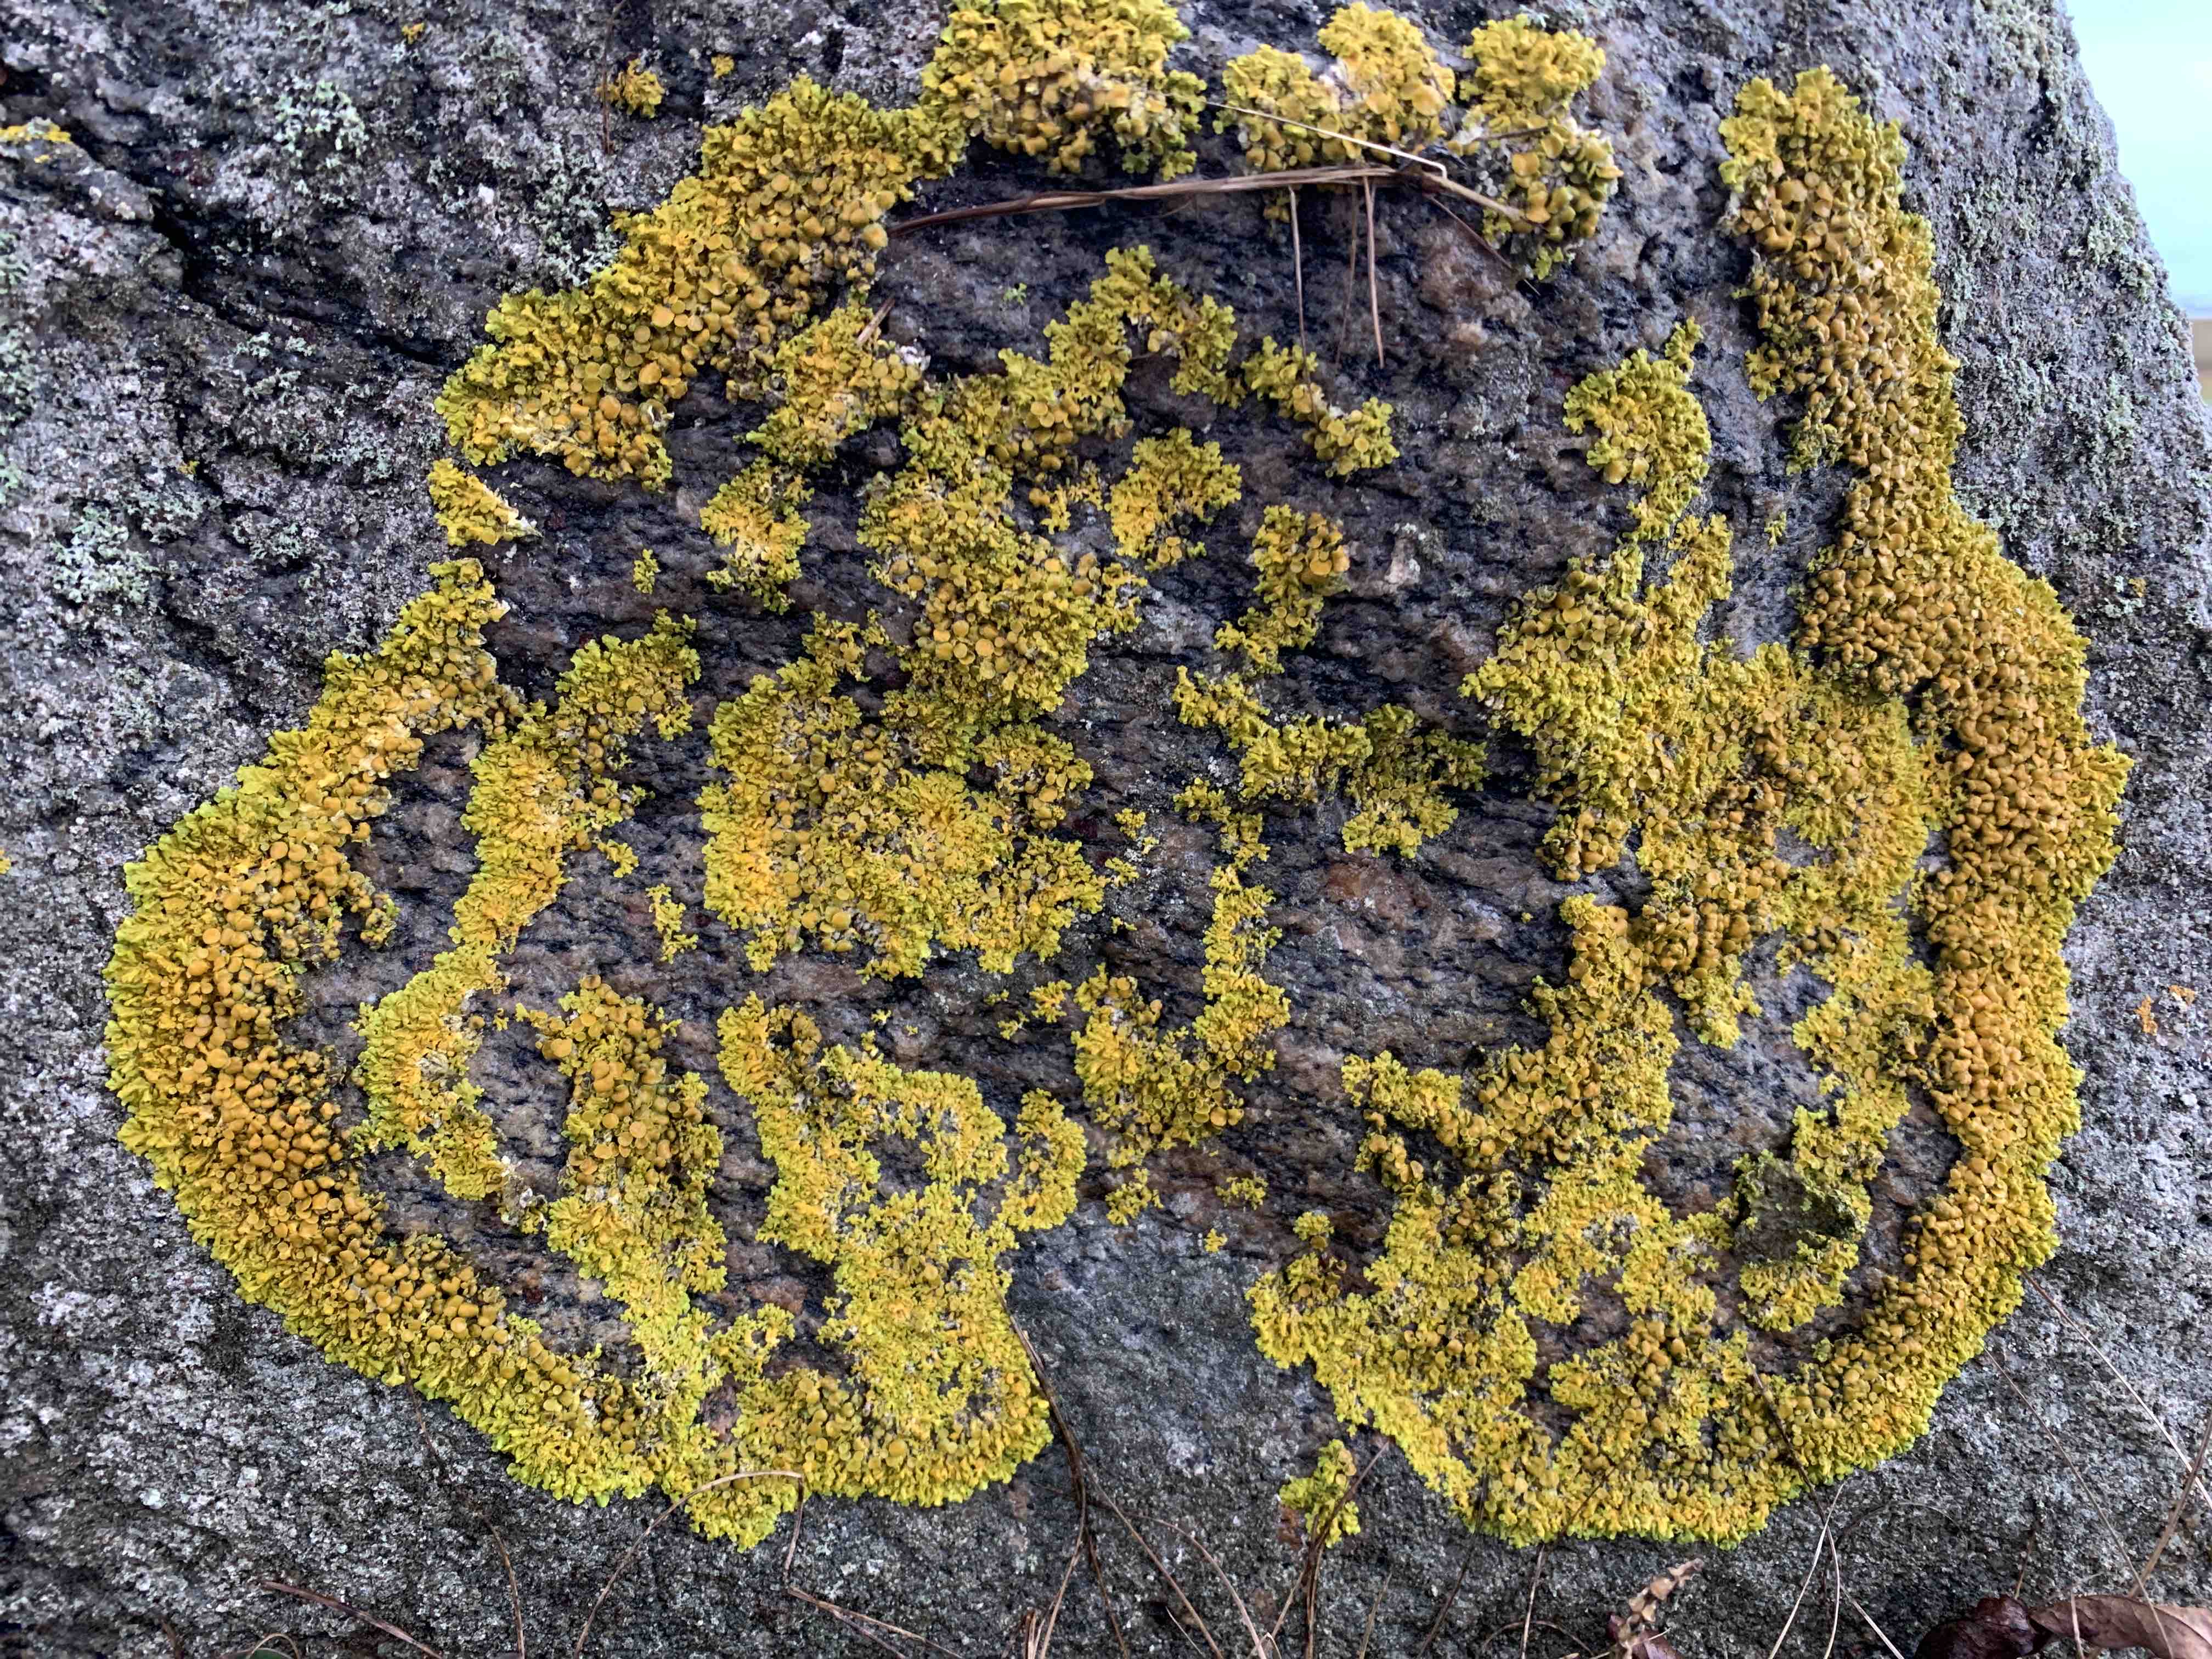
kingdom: Fungi
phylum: Ascomycota
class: Lecanoromycetes
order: Teloschistales
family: Teloschistaceae
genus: Xanthoria
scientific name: Xanthoria parietina
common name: almindelig væggelav
